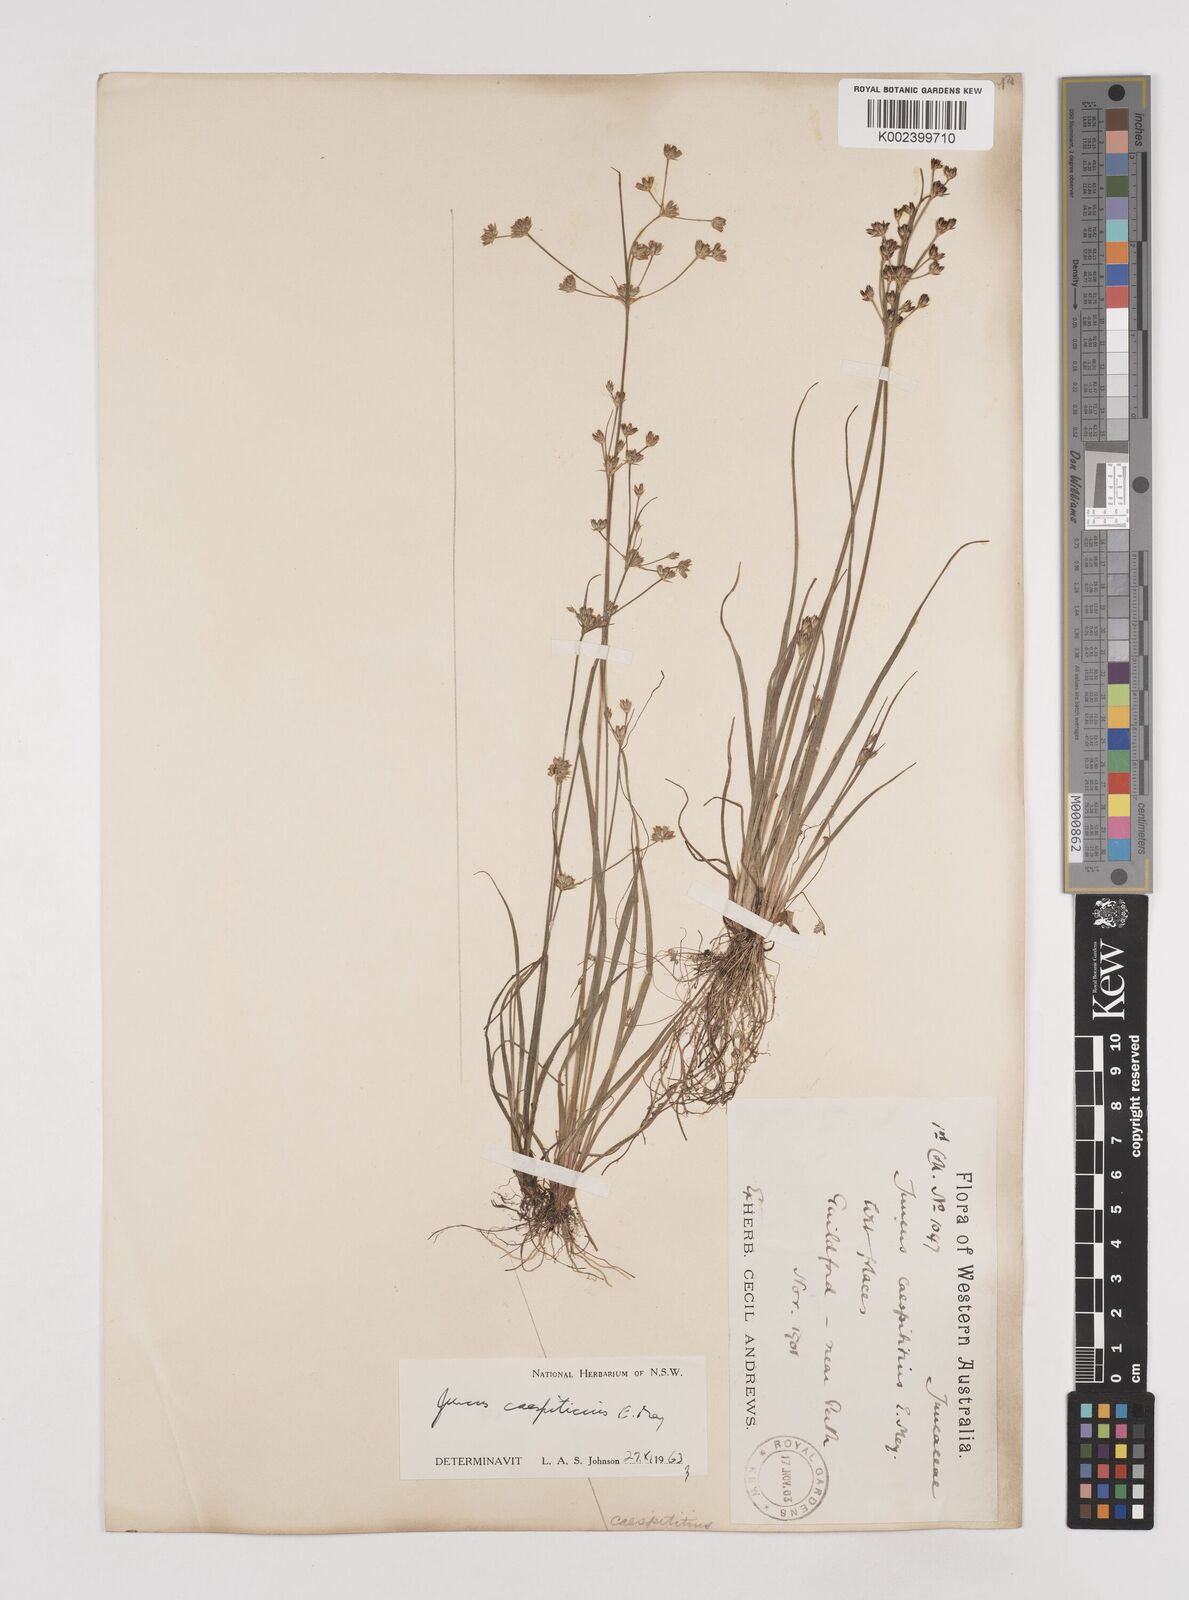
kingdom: Plantae
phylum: Tracheophyta
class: Liliopsida
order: Poales
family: Juncaceae
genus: Juncus
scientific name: Juncus caespiticius
